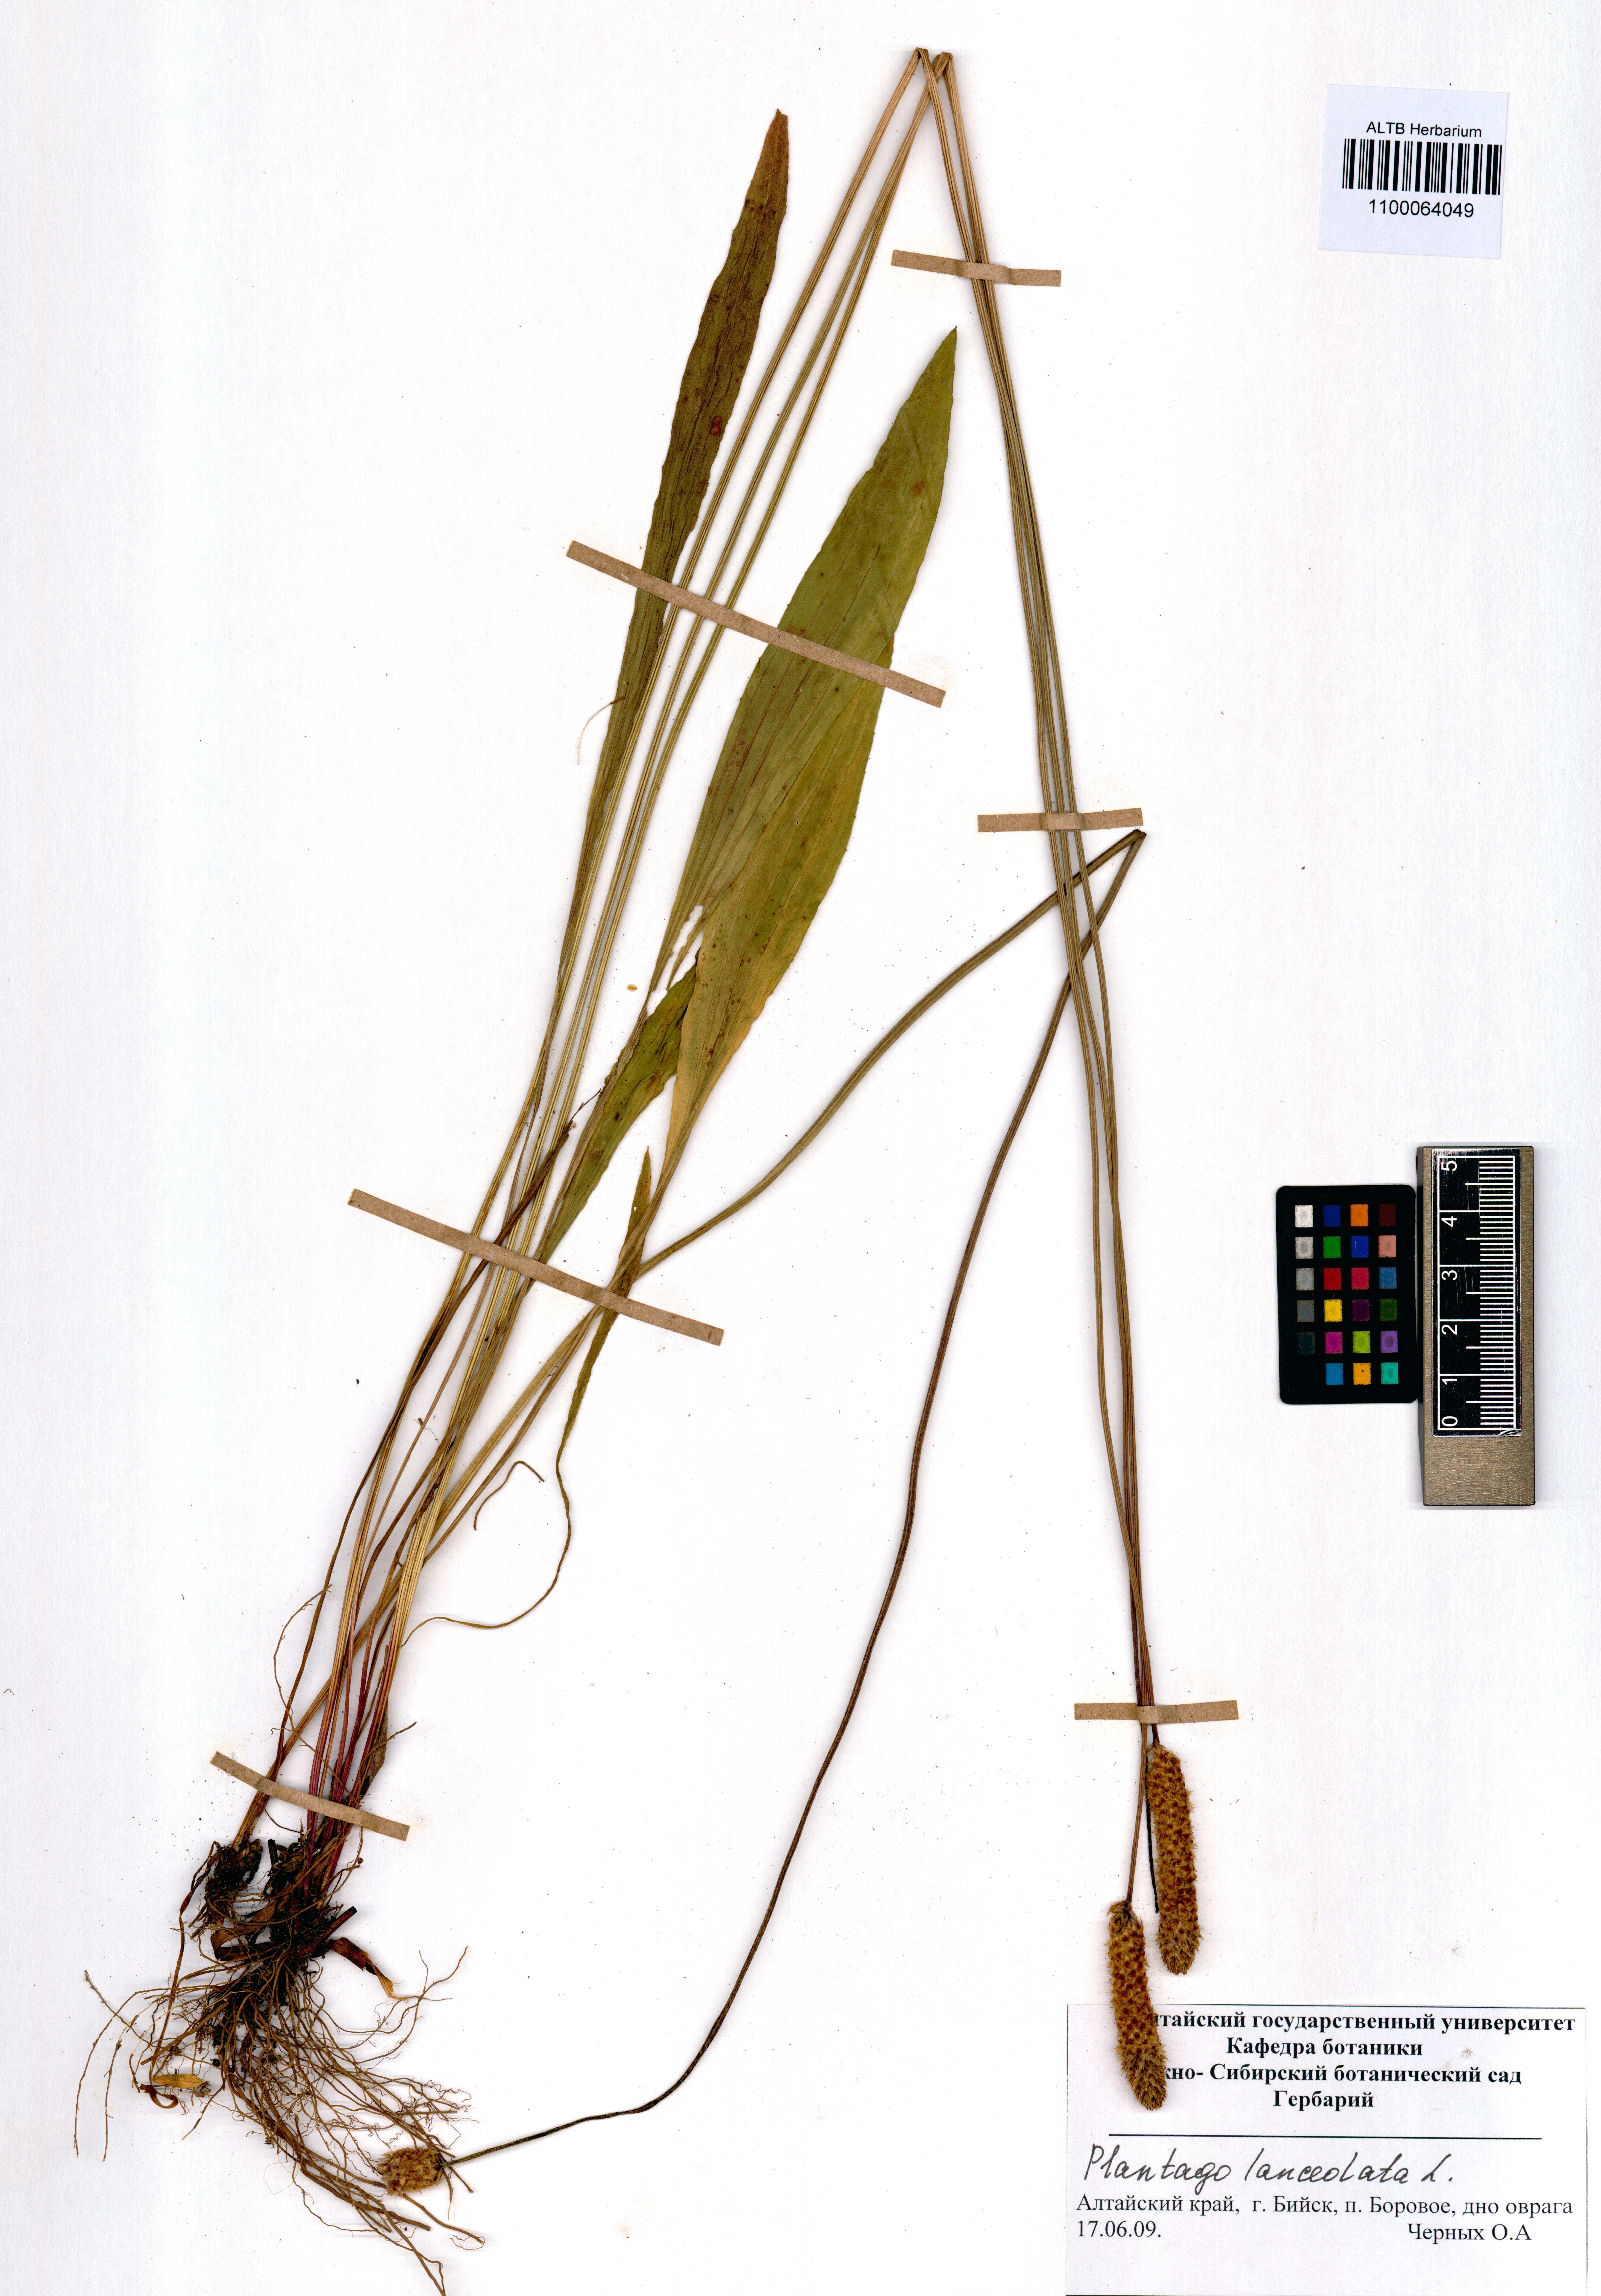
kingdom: Plantae
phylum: Tracheophyta
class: Magnoliopsida
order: Lamiales
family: Plantaginaceae
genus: Plantago
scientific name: Plantago lanceolata
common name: Ribwort plantain
